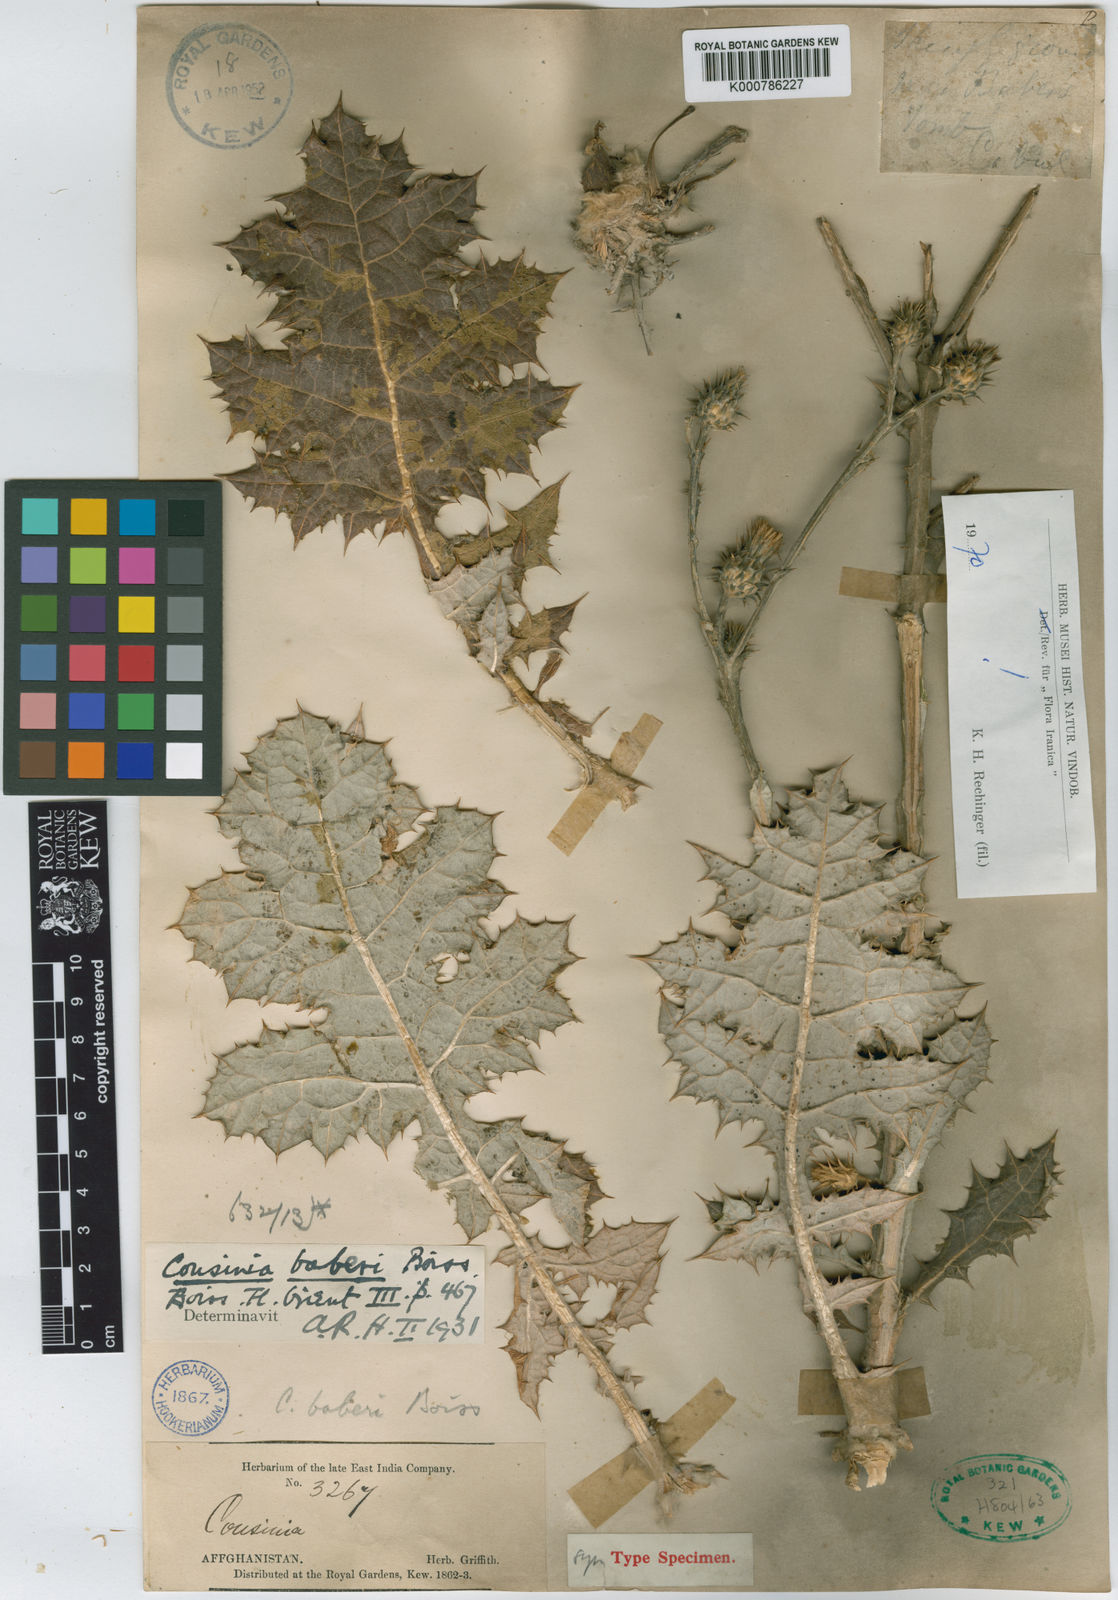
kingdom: Plantae
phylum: Tracheophyta
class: Magnoliopsida
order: Asterales
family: Asteraceae
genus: Cousinia
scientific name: Cousinia baberi
